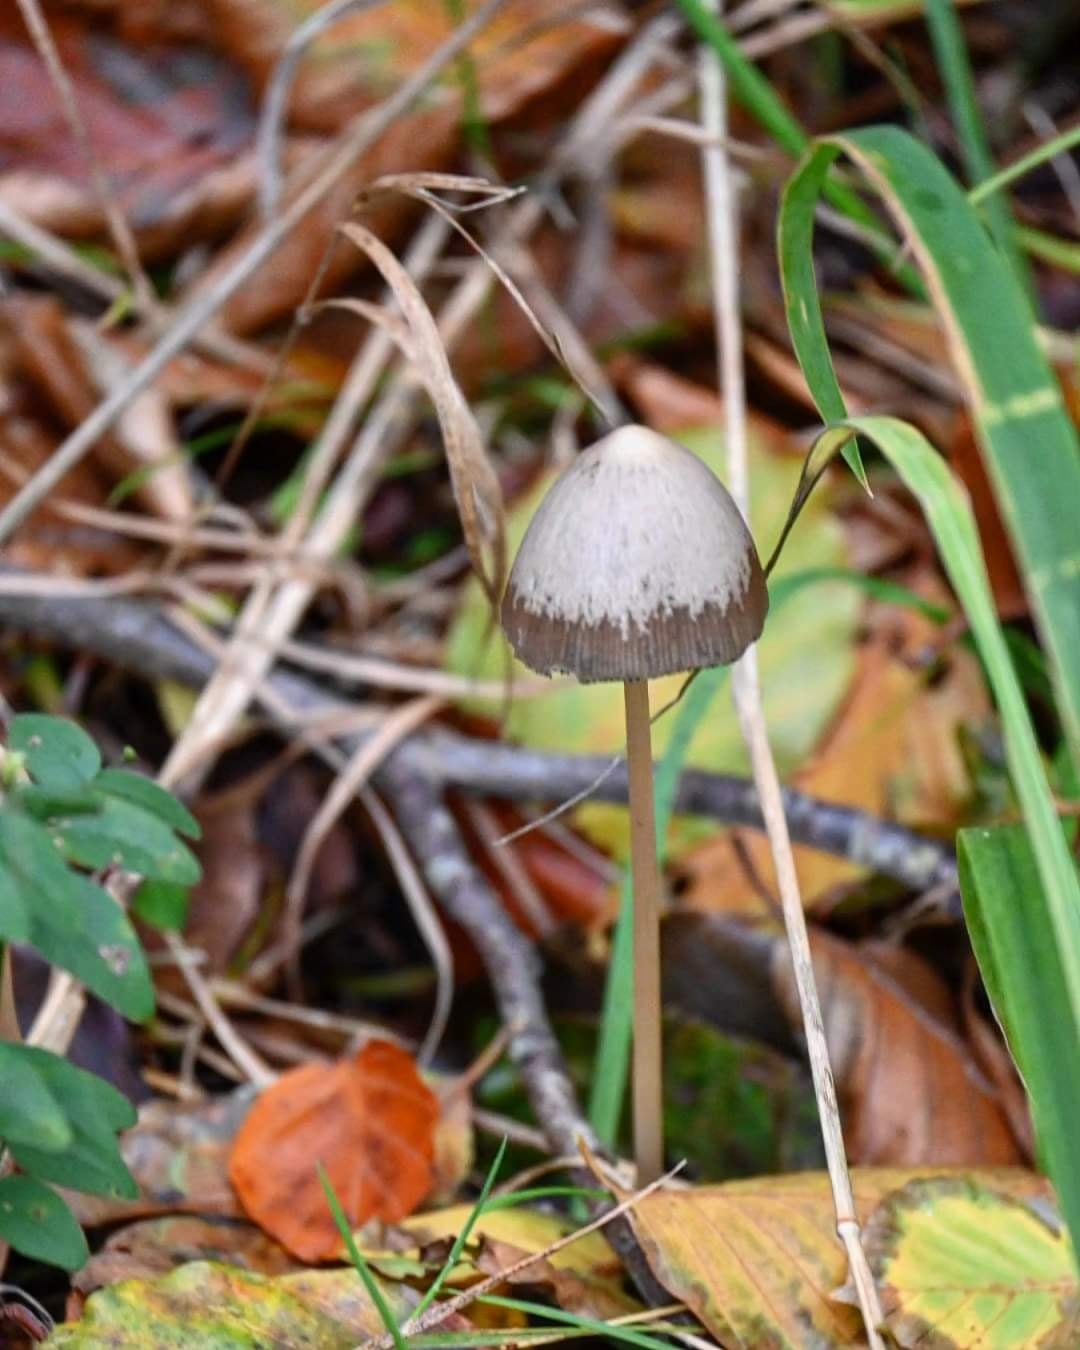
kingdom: Fungi
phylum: Basidiomycota
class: Agaricomycetes
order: Agaricales
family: Psathyrellaceae
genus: Psathyrella
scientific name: Psathyrella
